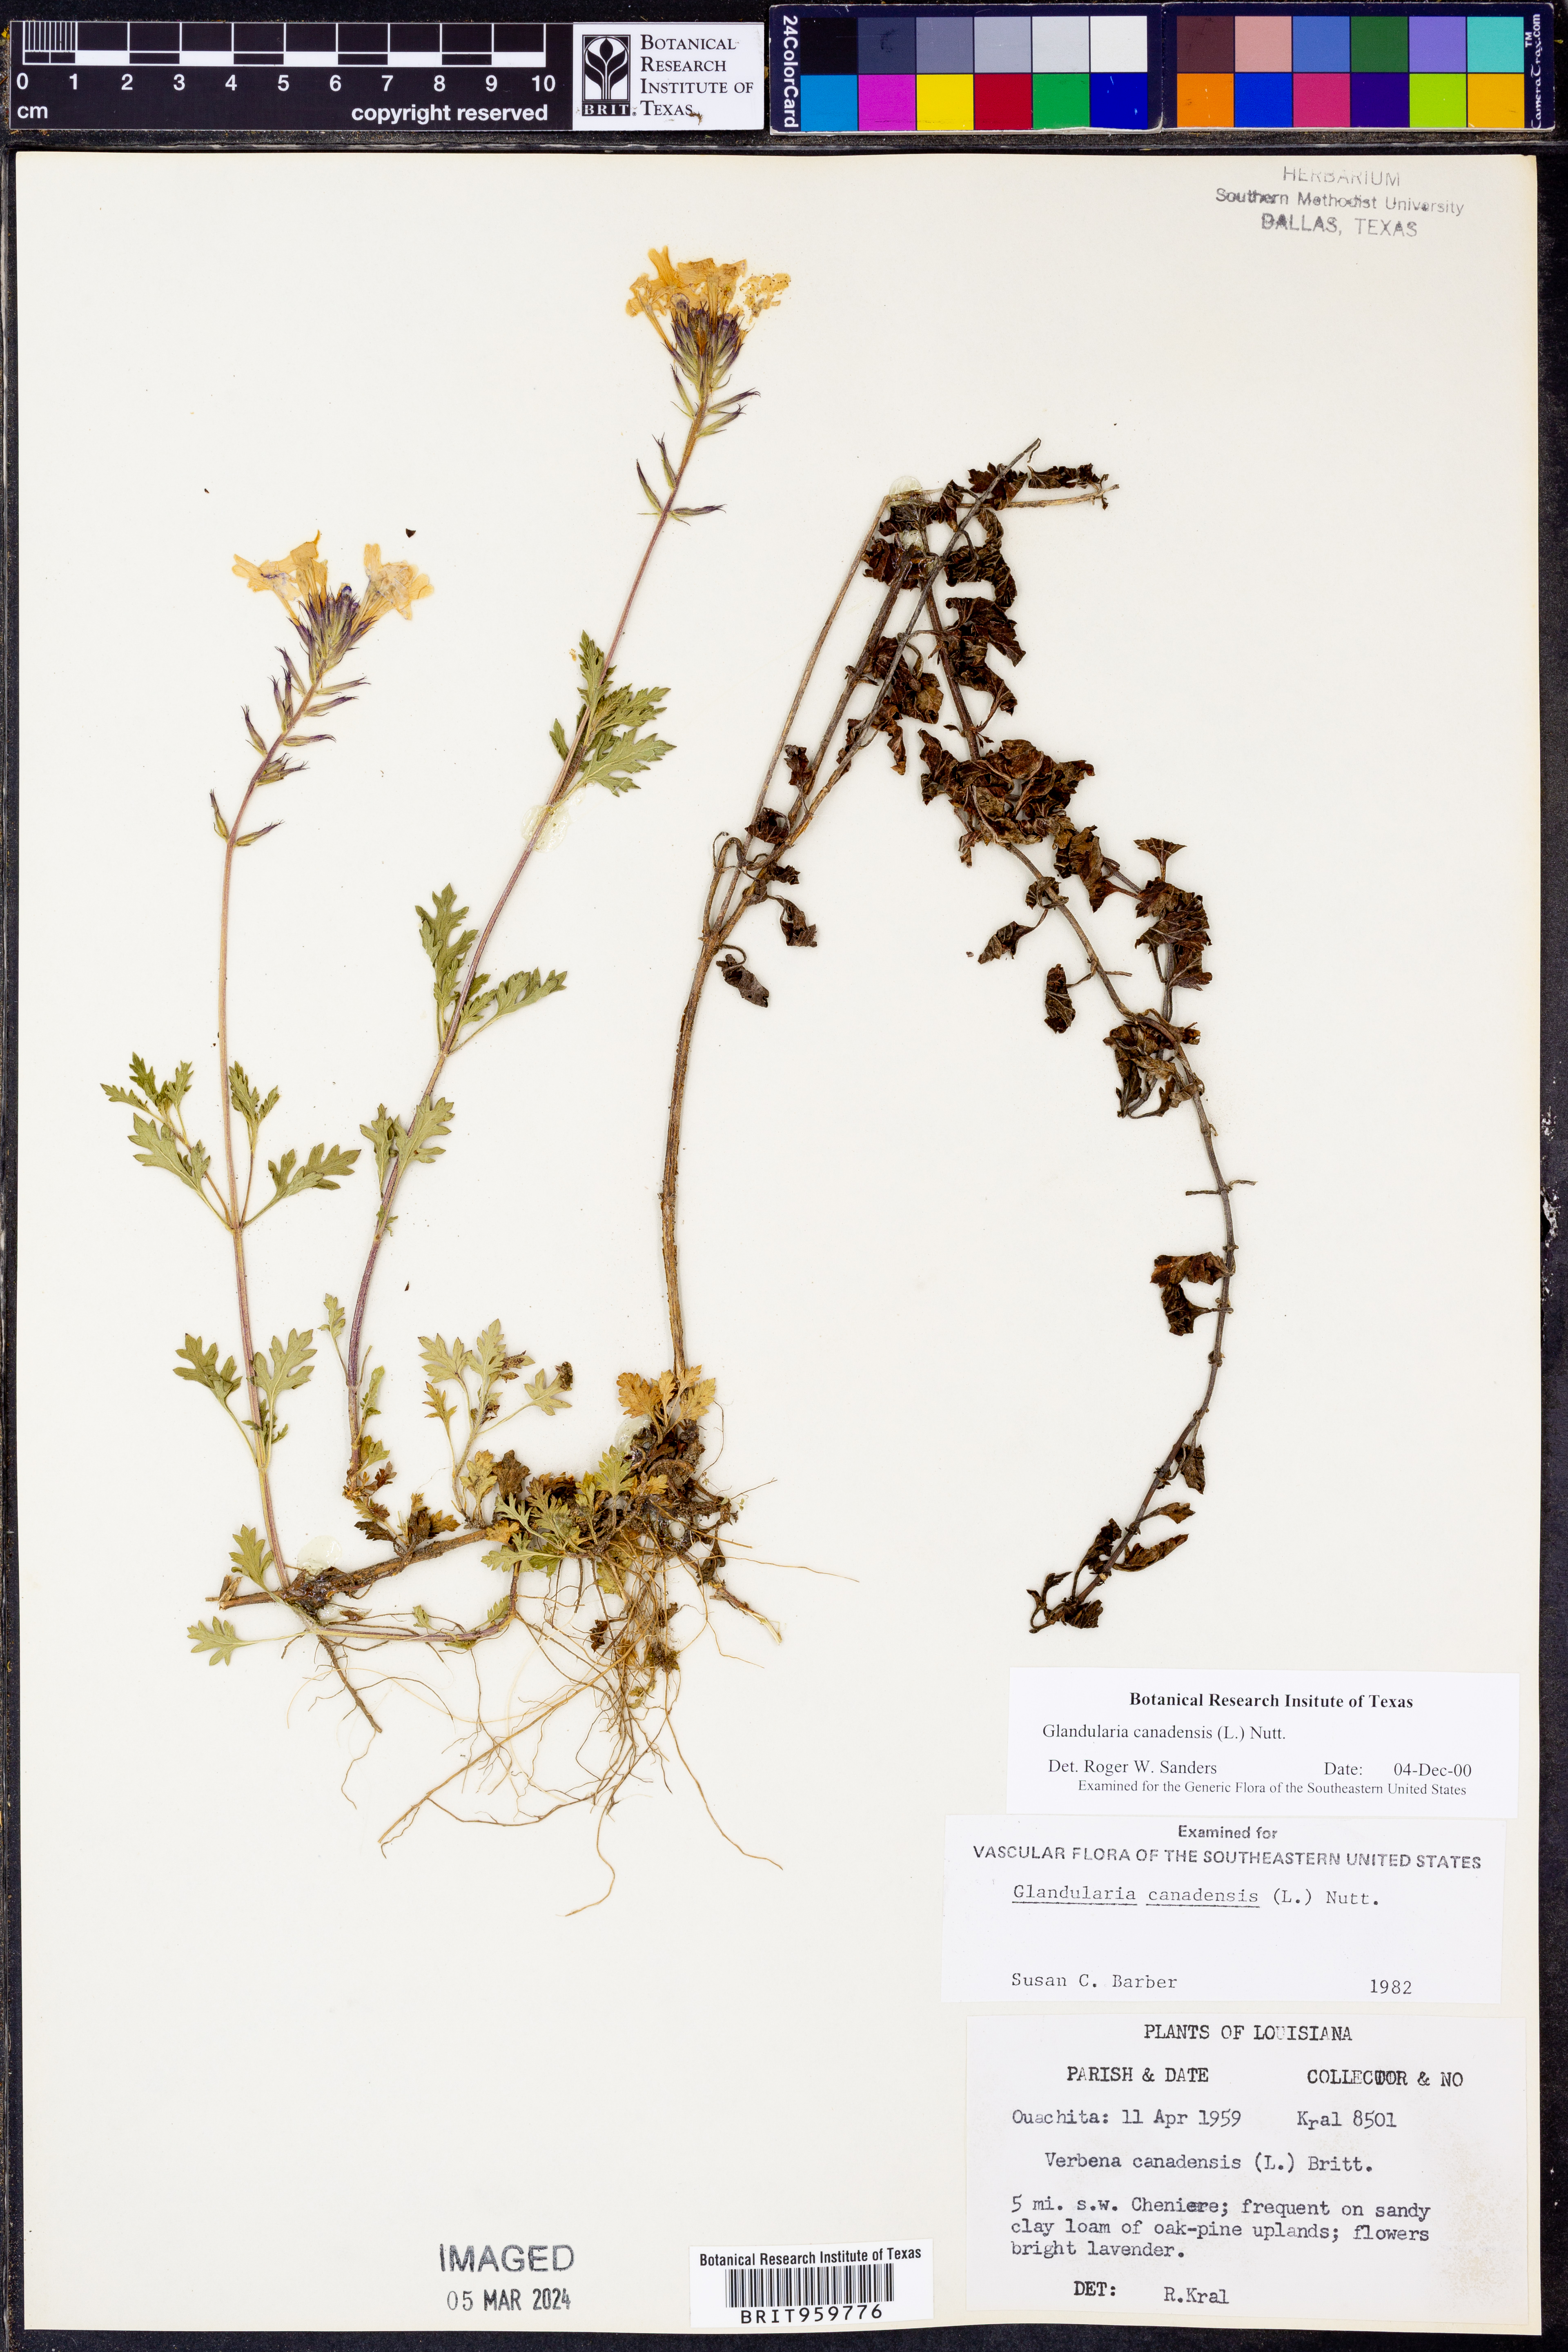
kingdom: Plantae
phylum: Tracheophyta
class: Magnoliopsida
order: Lamiales
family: Verbenaceae
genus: Verbena
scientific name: Verbena canadensis
